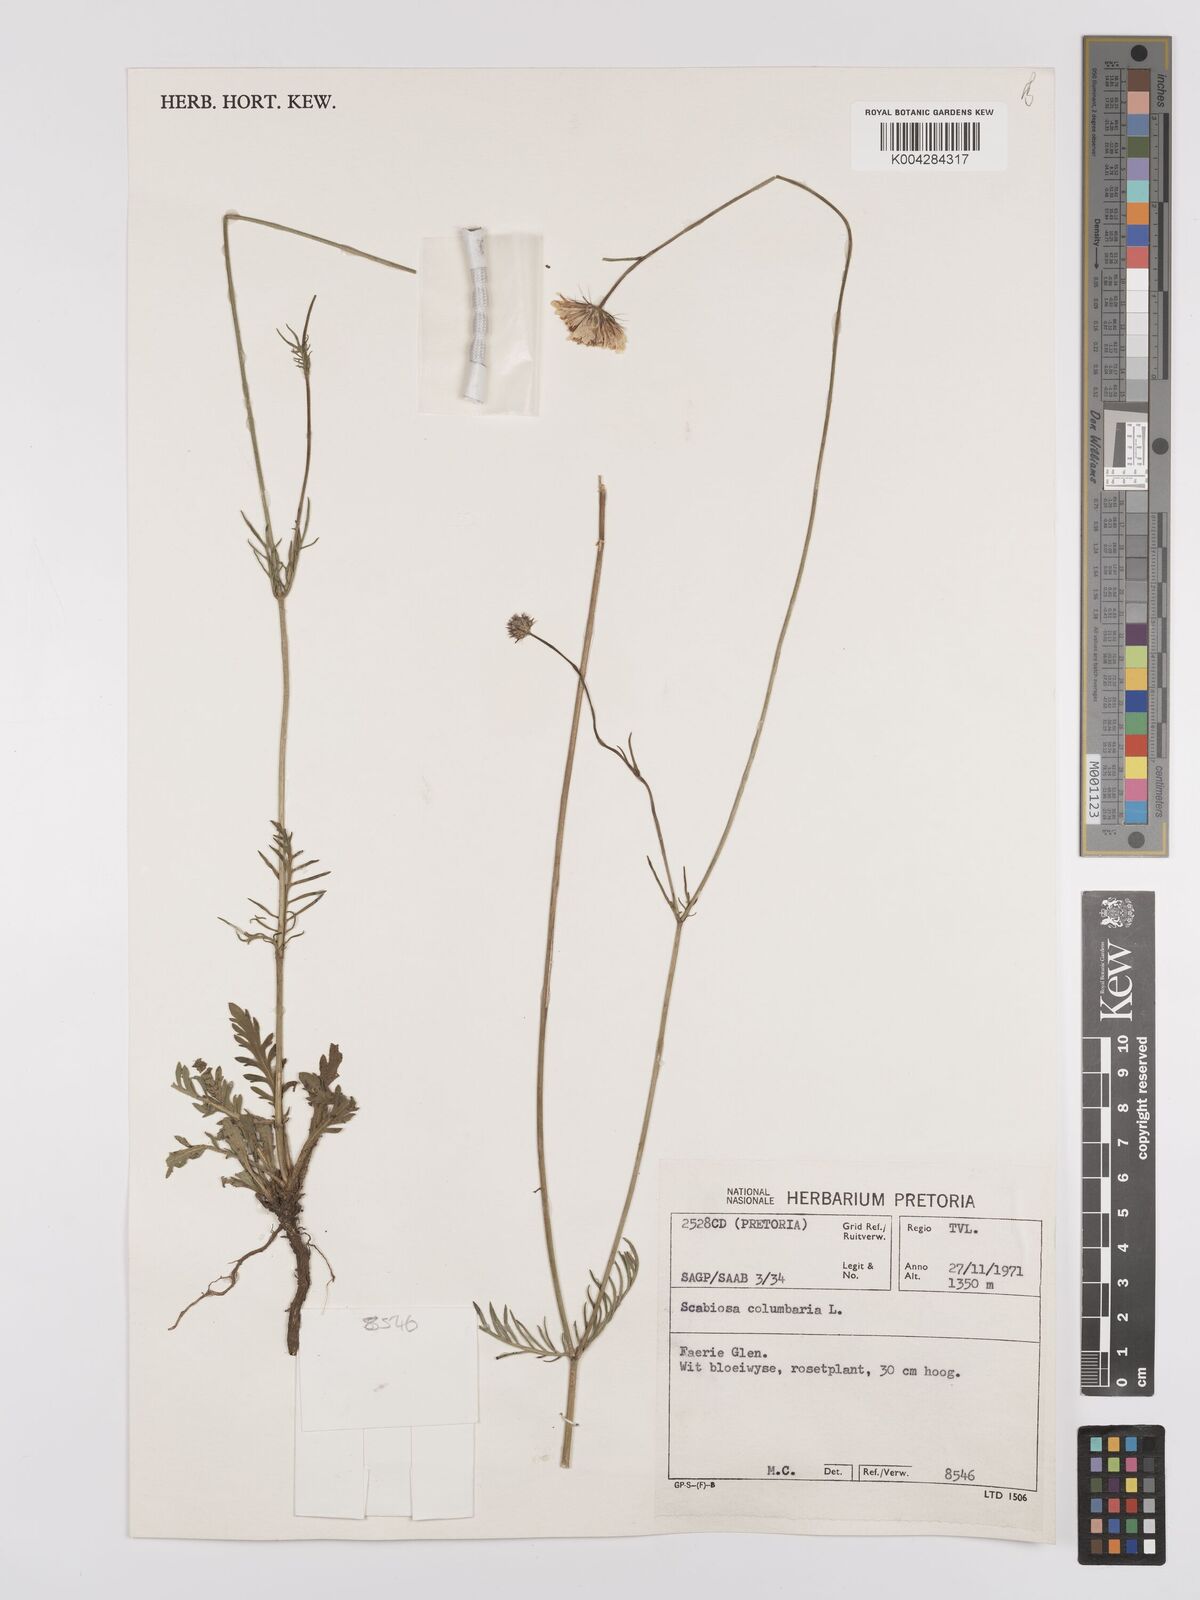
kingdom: Plantae
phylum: Tracheophyta
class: Magnoliopsida
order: Dipsacales
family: Caprifoliaceae
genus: Scabiosa
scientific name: Scabiosa austroafricana
